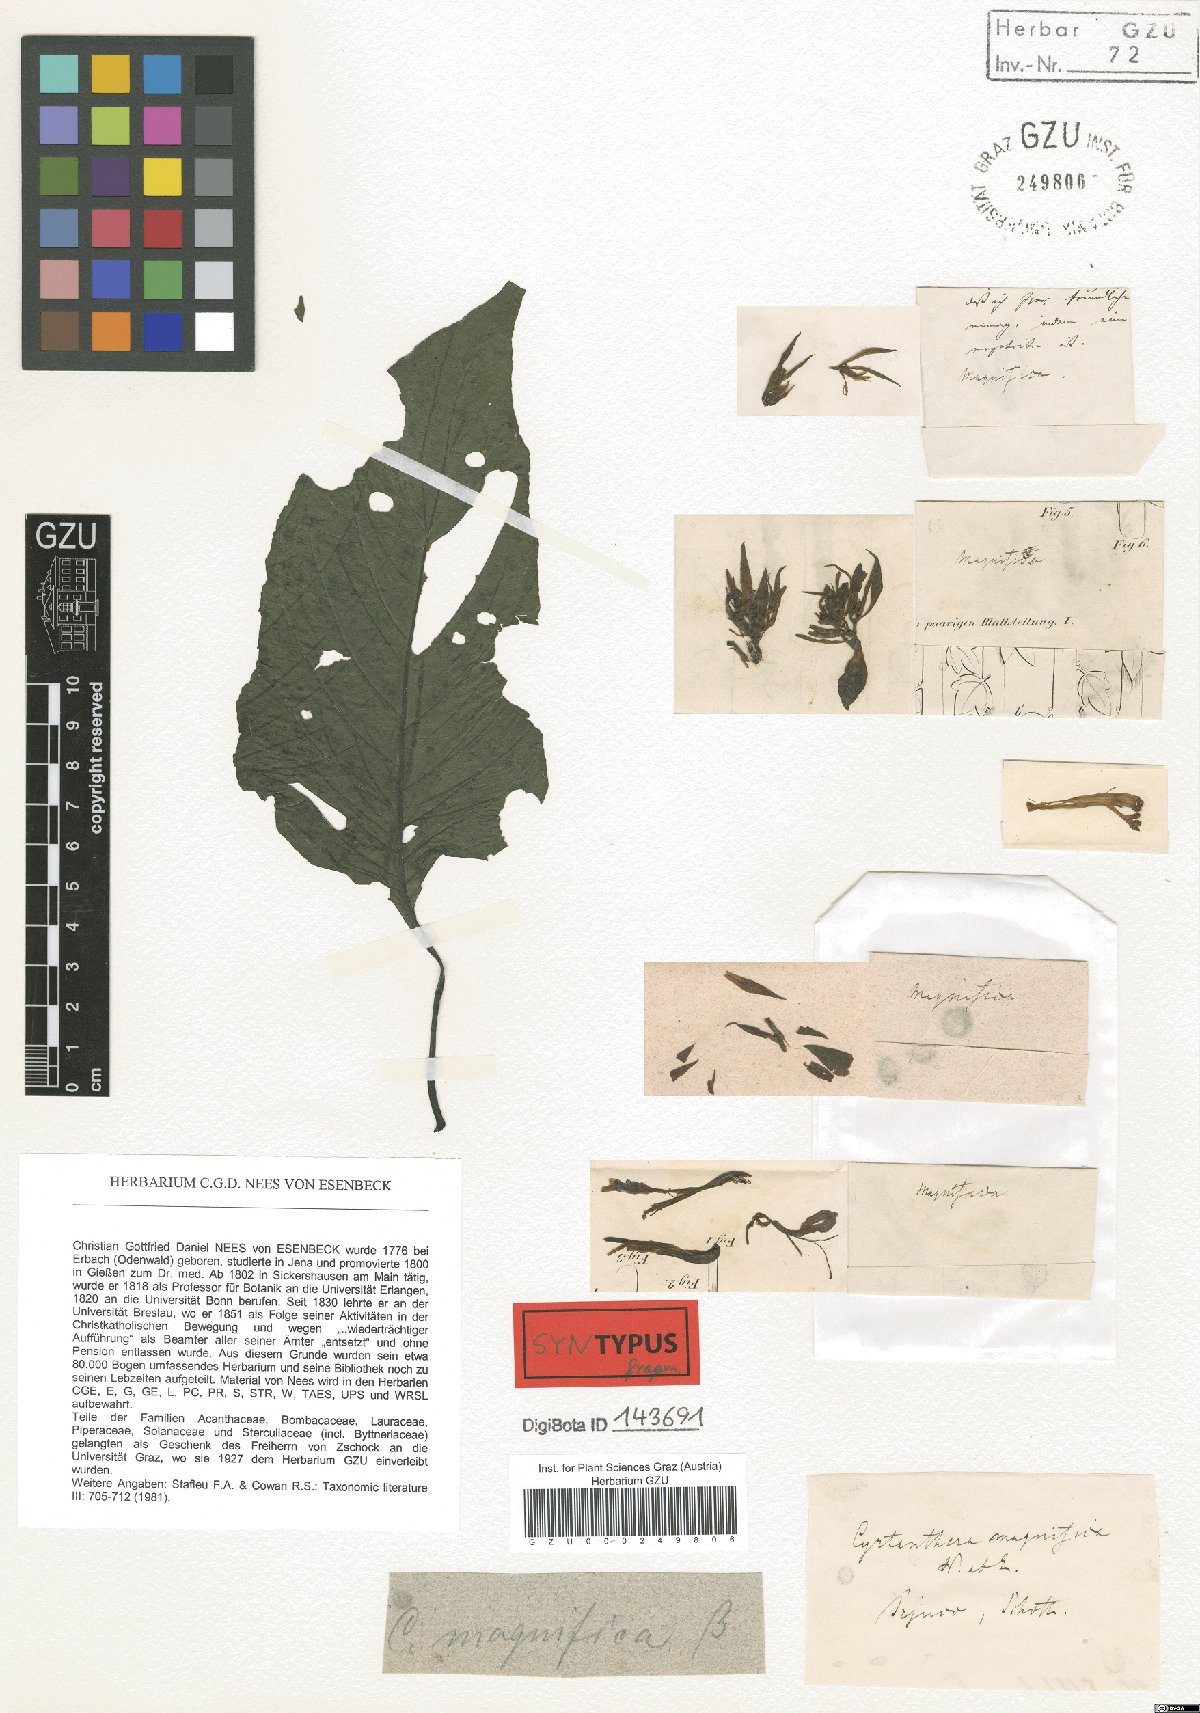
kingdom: Plantae
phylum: Tracheophyta
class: Magnoliopsida
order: Lamiales
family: Acanthaceae
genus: Justicia
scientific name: Justicia carnea
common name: Brazilian-plume
